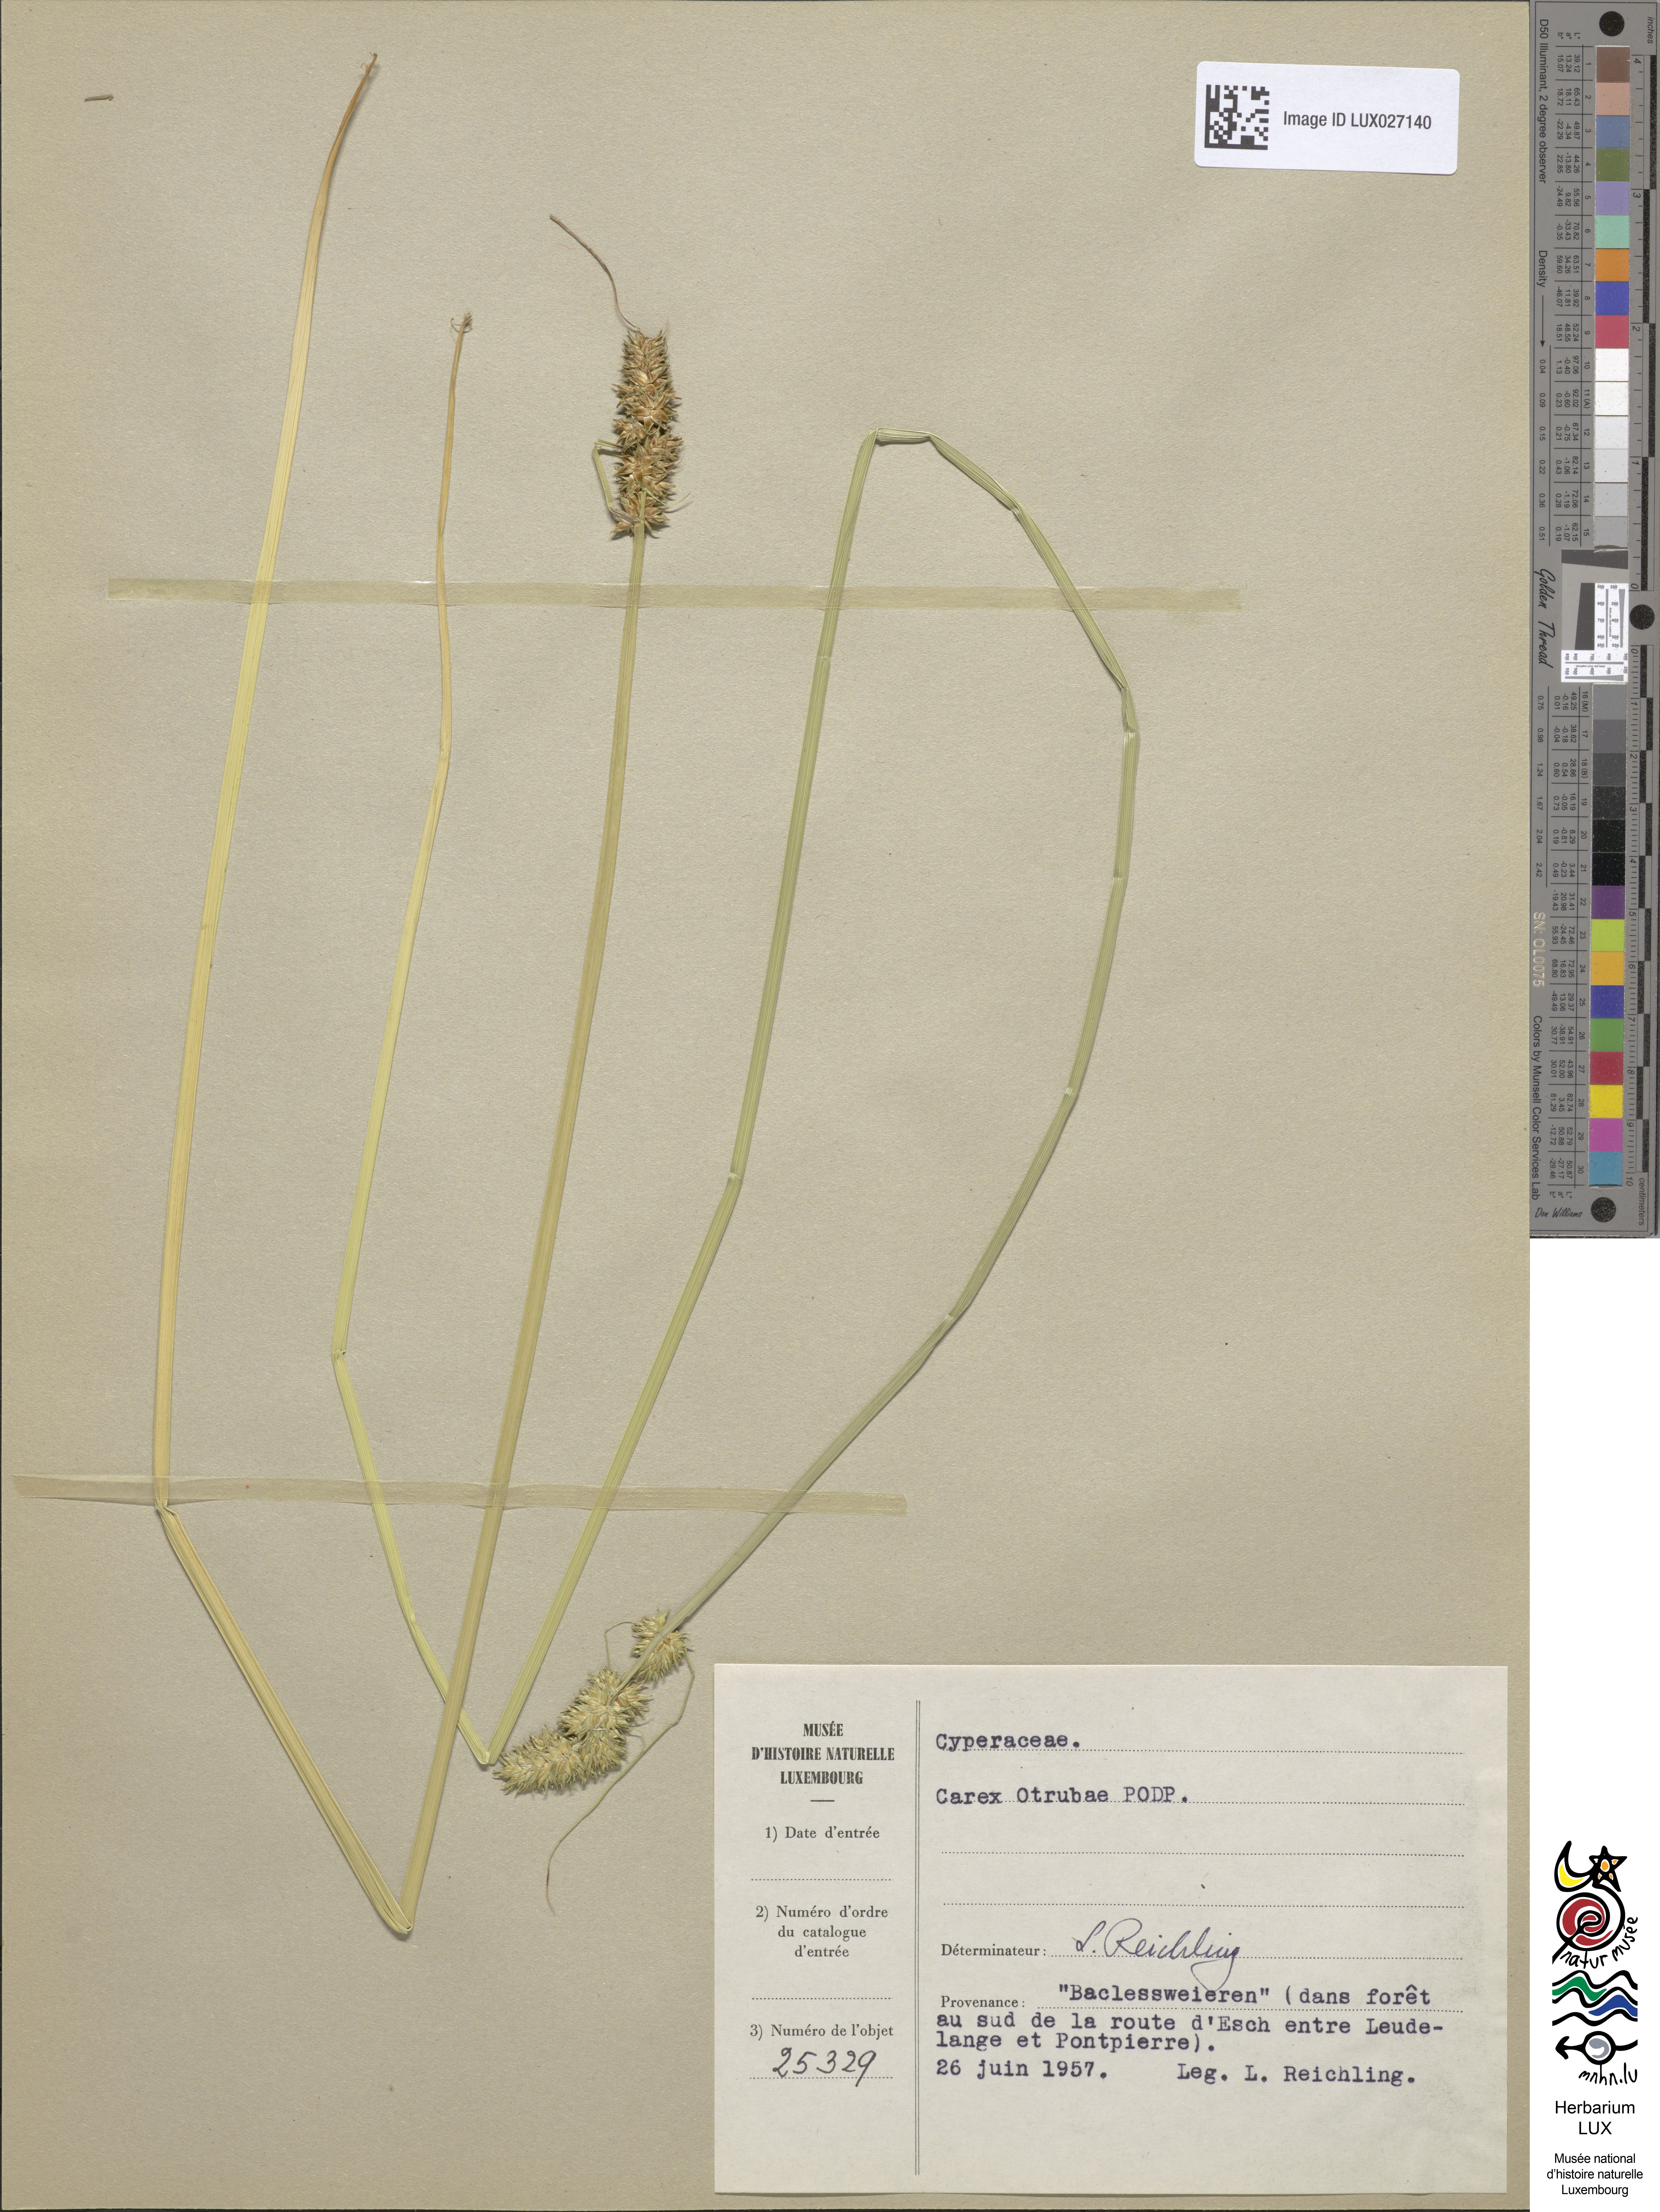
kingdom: Plantae
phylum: Tracheophyta
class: Liliopsida
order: Poales
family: Cyperaceae
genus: Carex
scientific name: Carex leersii
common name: Leers' sedge
